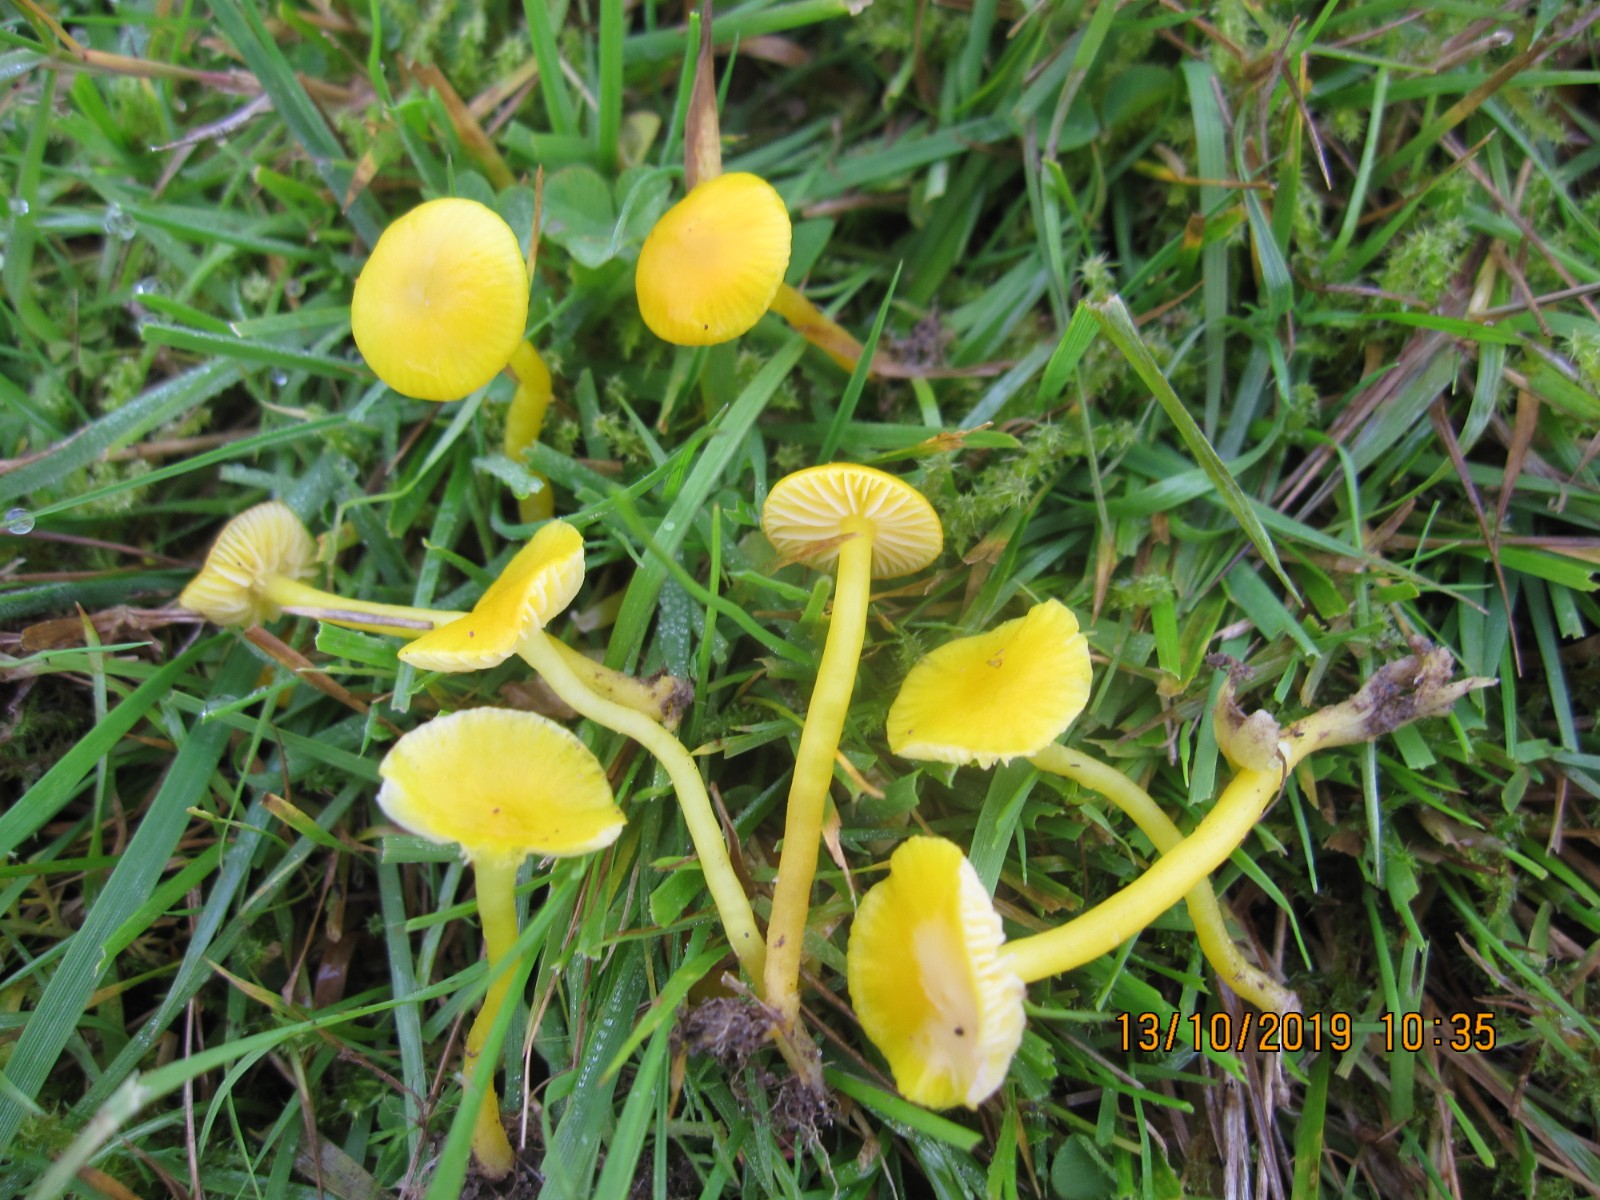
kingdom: Fungi
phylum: Basidiomycota
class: Agaricomycetes
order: Agaricales
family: Hygrophoraceae
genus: Hygrocybe
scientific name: Hygrocybe ceracea
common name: voksgul vokshat
